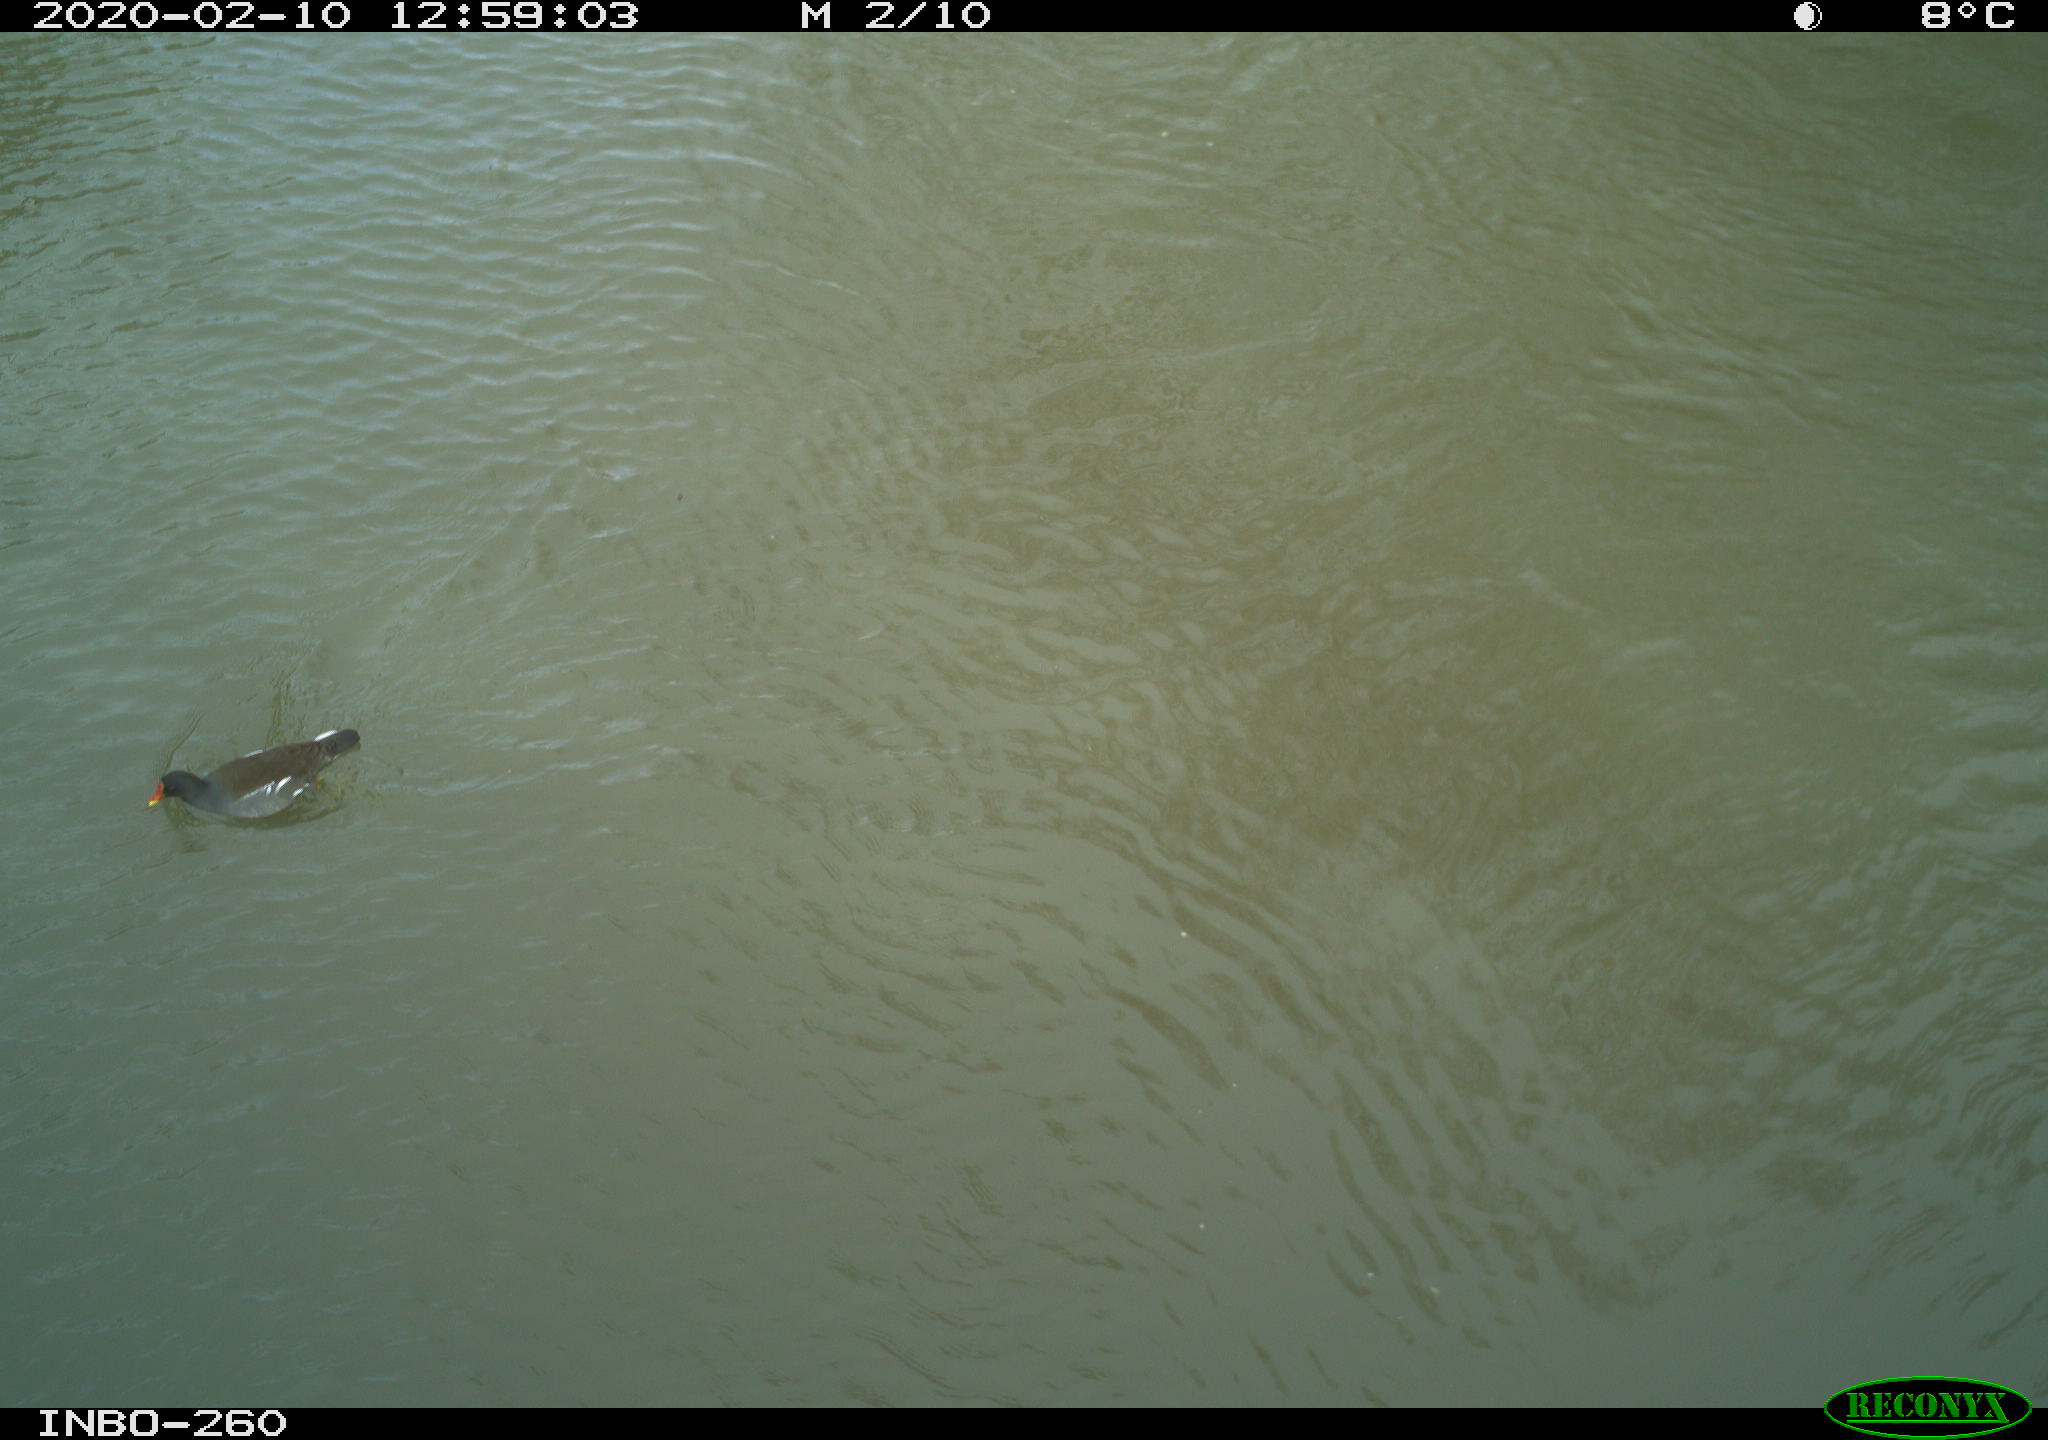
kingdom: Animalia
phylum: Chordata
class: Aves
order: Gruiformes
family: Rallidae
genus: Gallinula
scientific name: Gallinula chloropus
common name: Common moorhen
